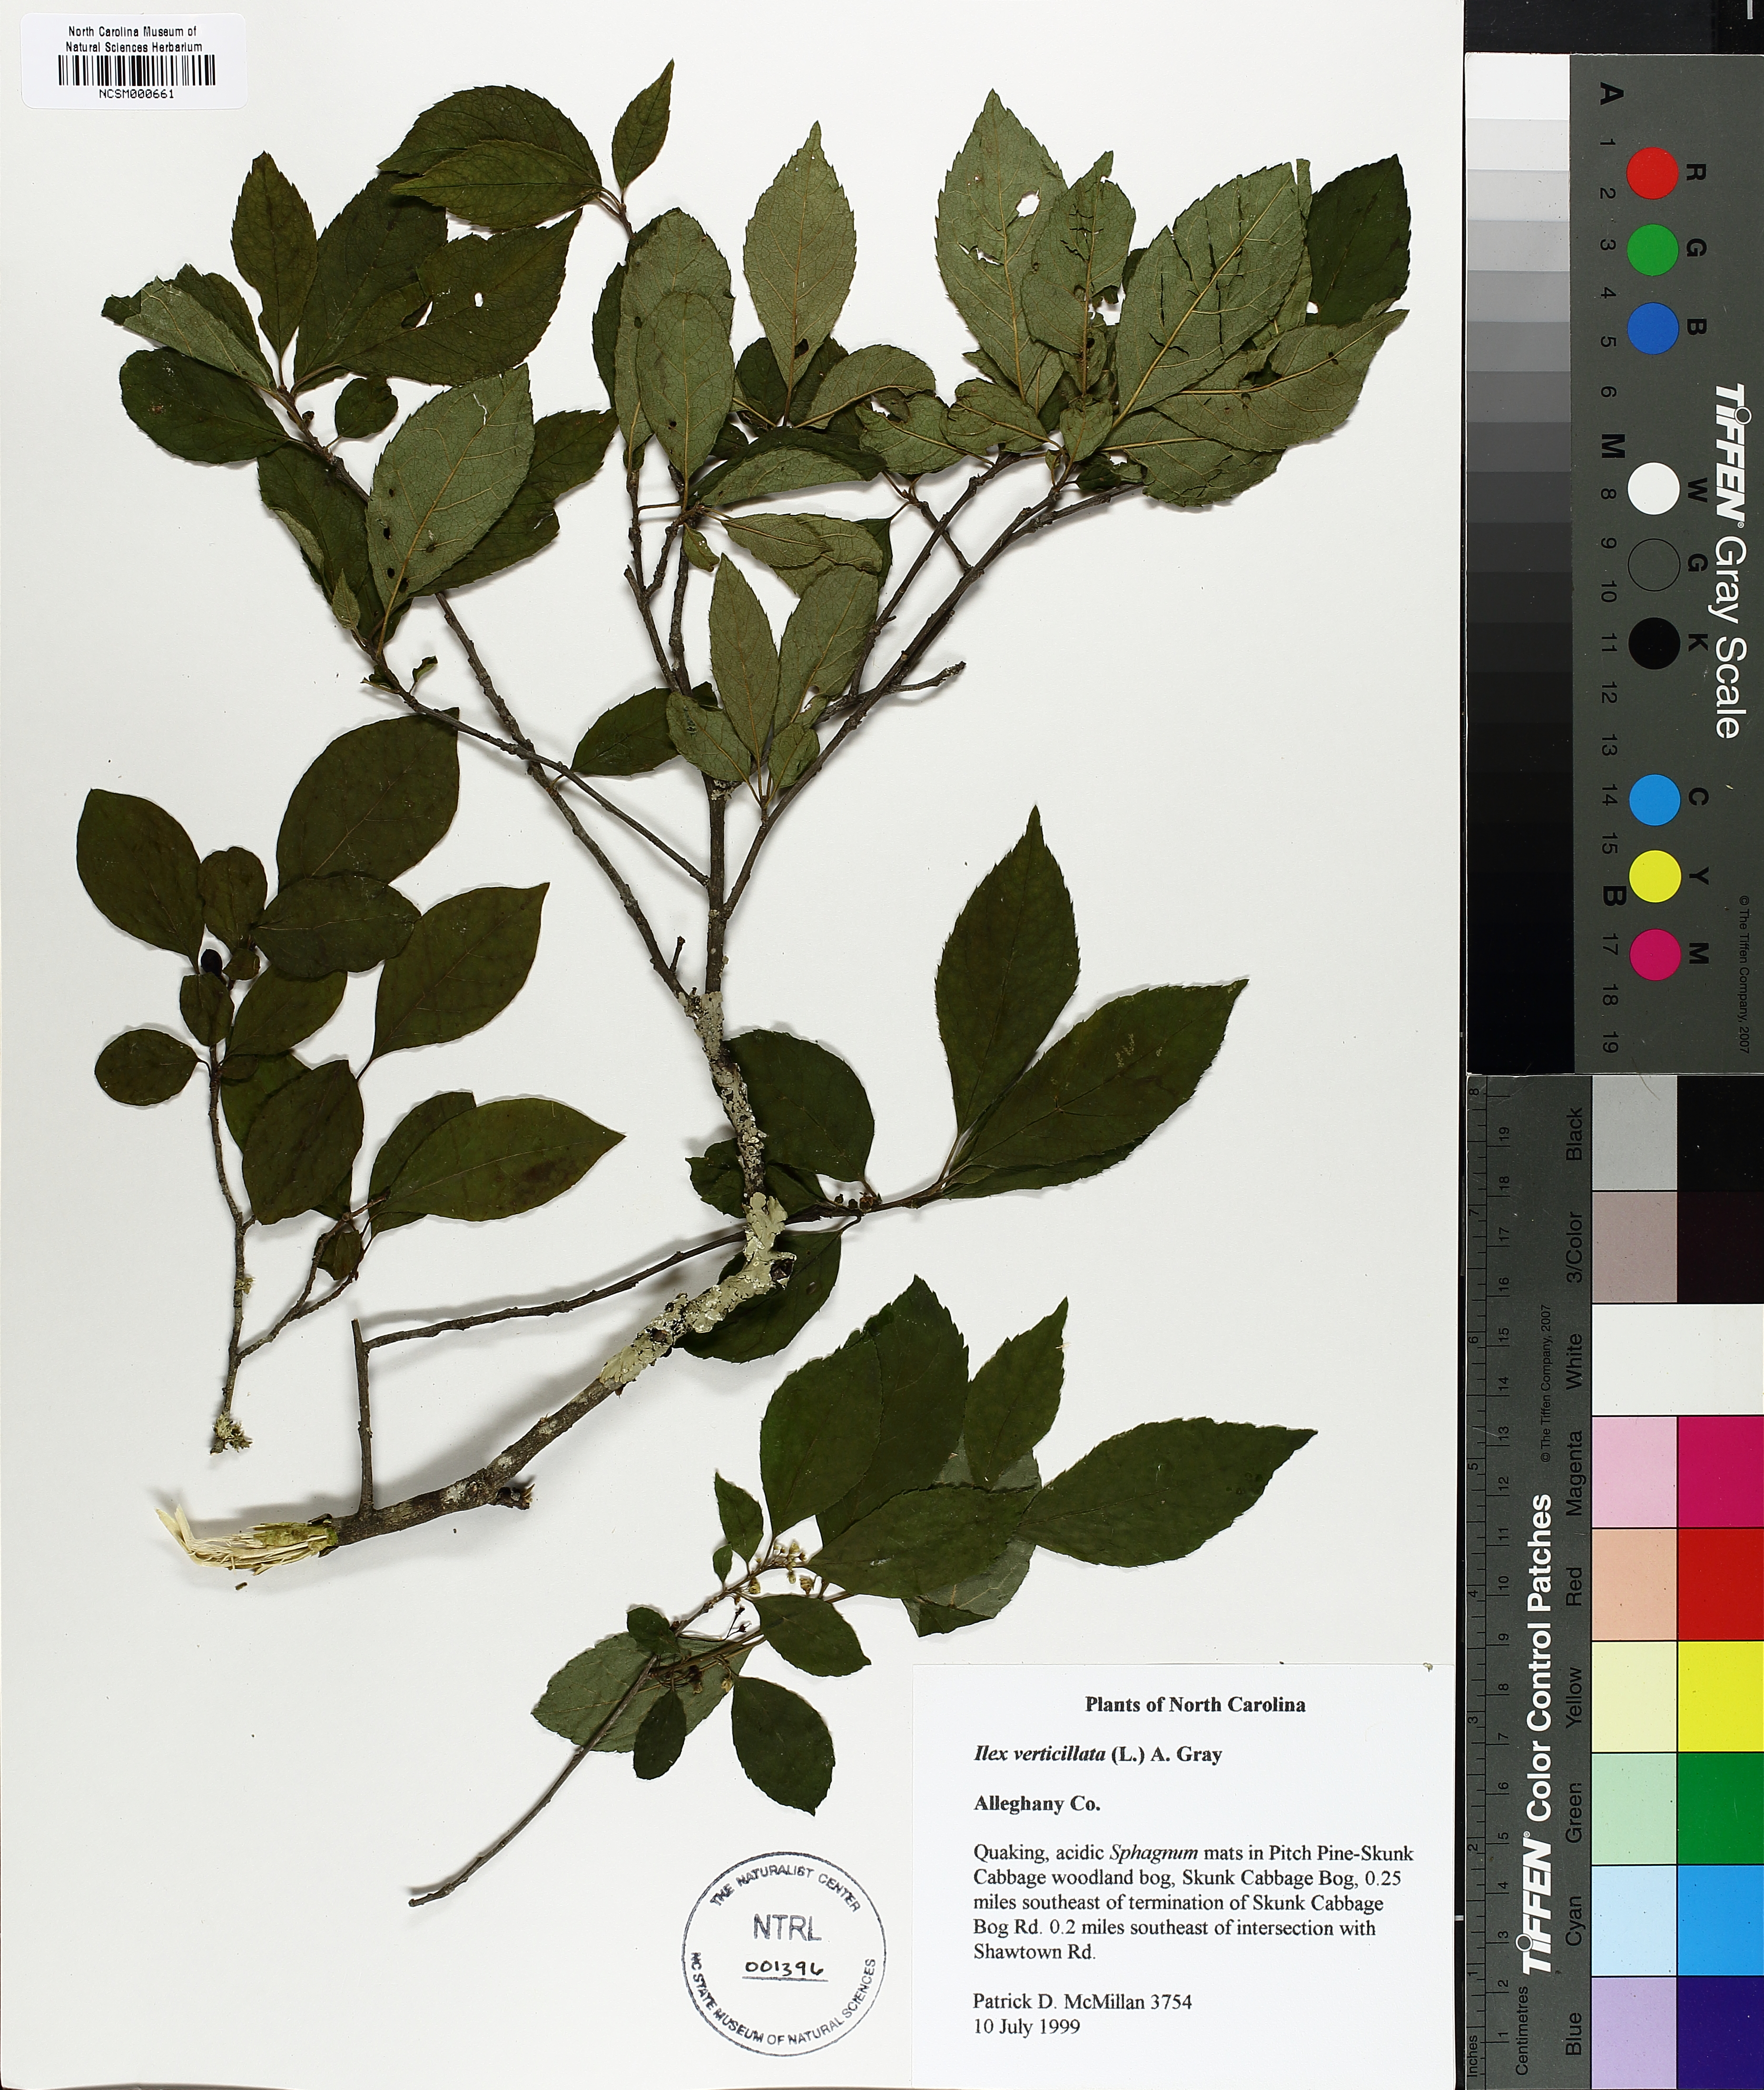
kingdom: Plantae
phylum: Tracheophyta
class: Magnoliopsida
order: Aquifoliales
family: Aquifoliaceae
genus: Ilex
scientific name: Ilex verticillata
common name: Virginia winterberry
